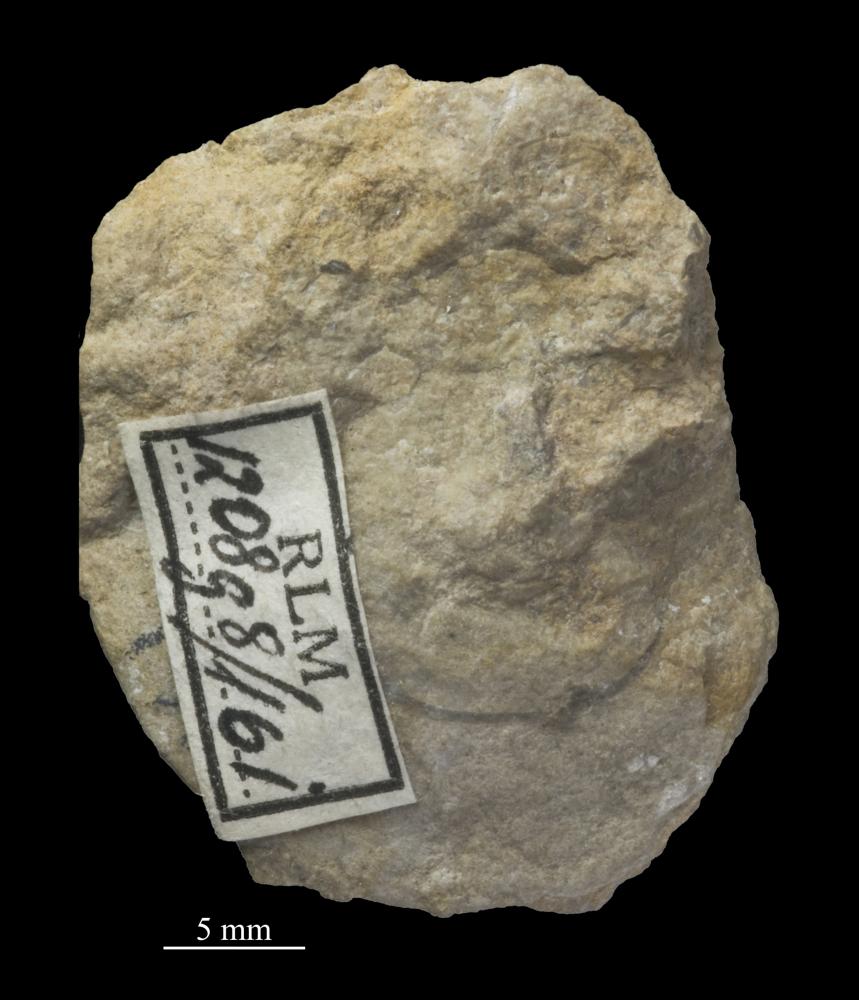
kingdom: Animalia
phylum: Mollusca
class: Gastropoda
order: Pleurotomariida
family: Eotomariidae
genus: Eotomaria
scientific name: Eotomaria Pleurotomaria notabilis
